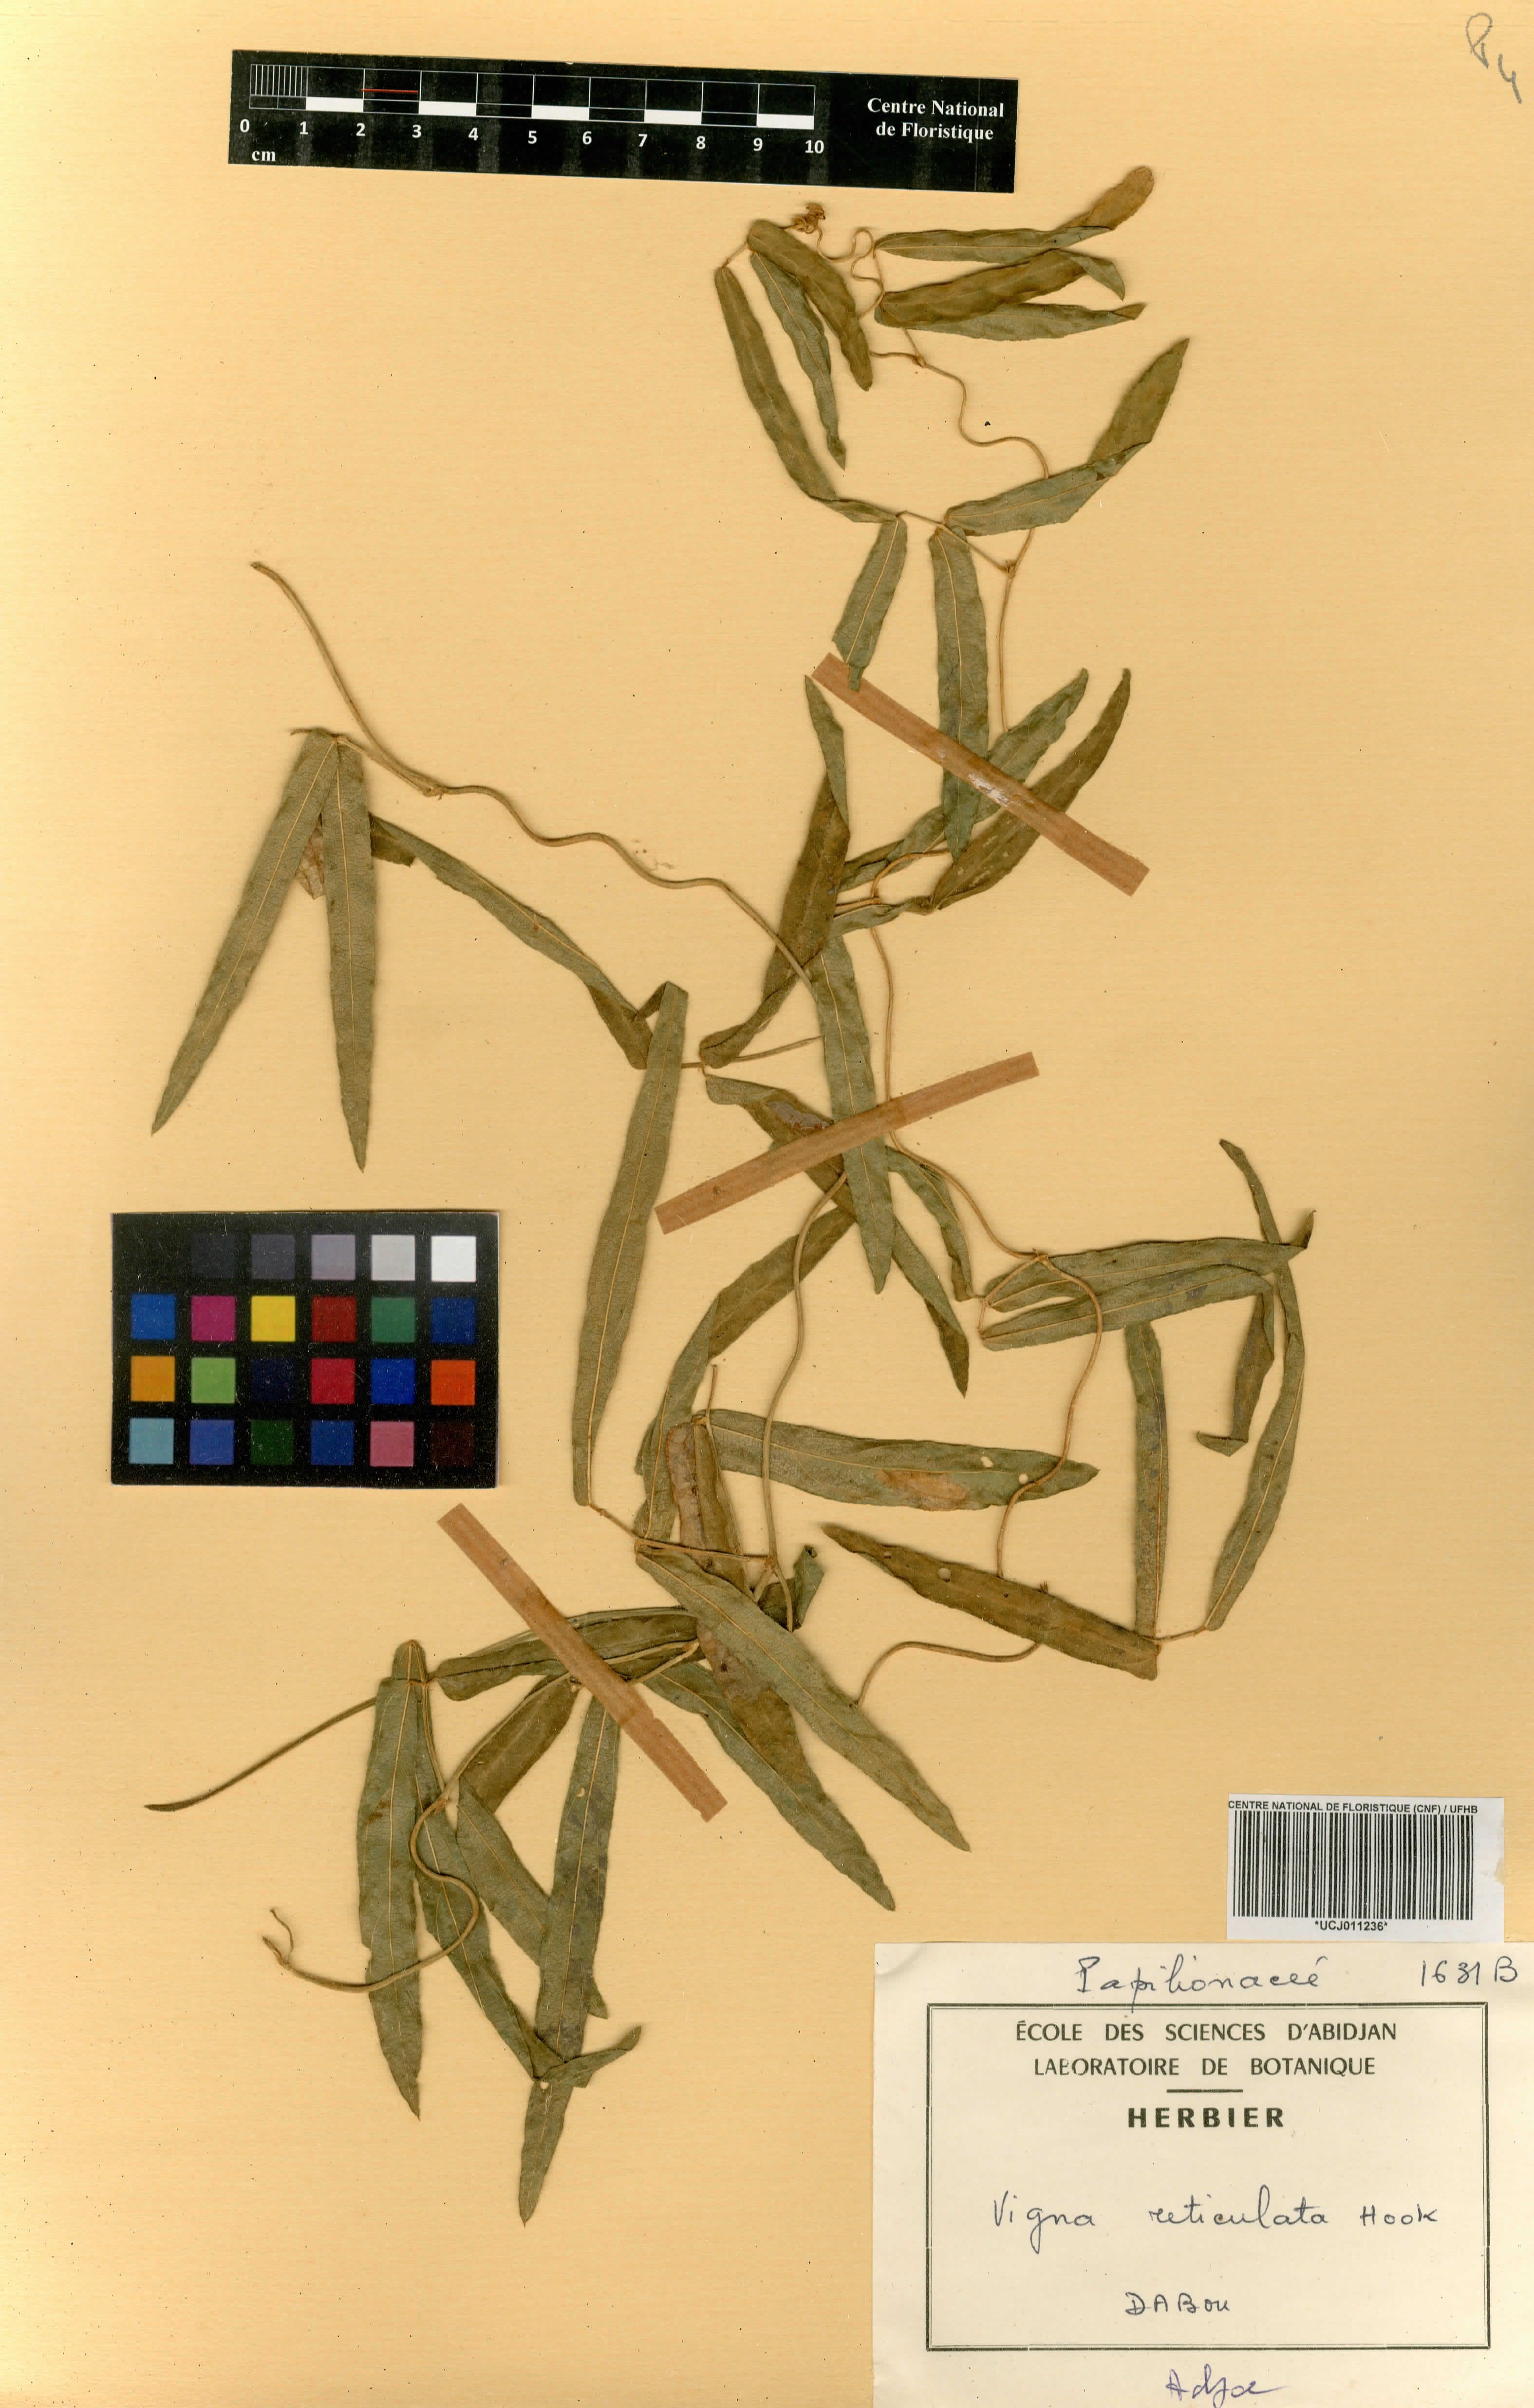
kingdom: Plantae
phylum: Tracheophyta
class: Magnoliopsida
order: Fabales
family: Fabaceae
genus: Vigna
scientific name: Vigna unguiculata
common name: Cowpea
